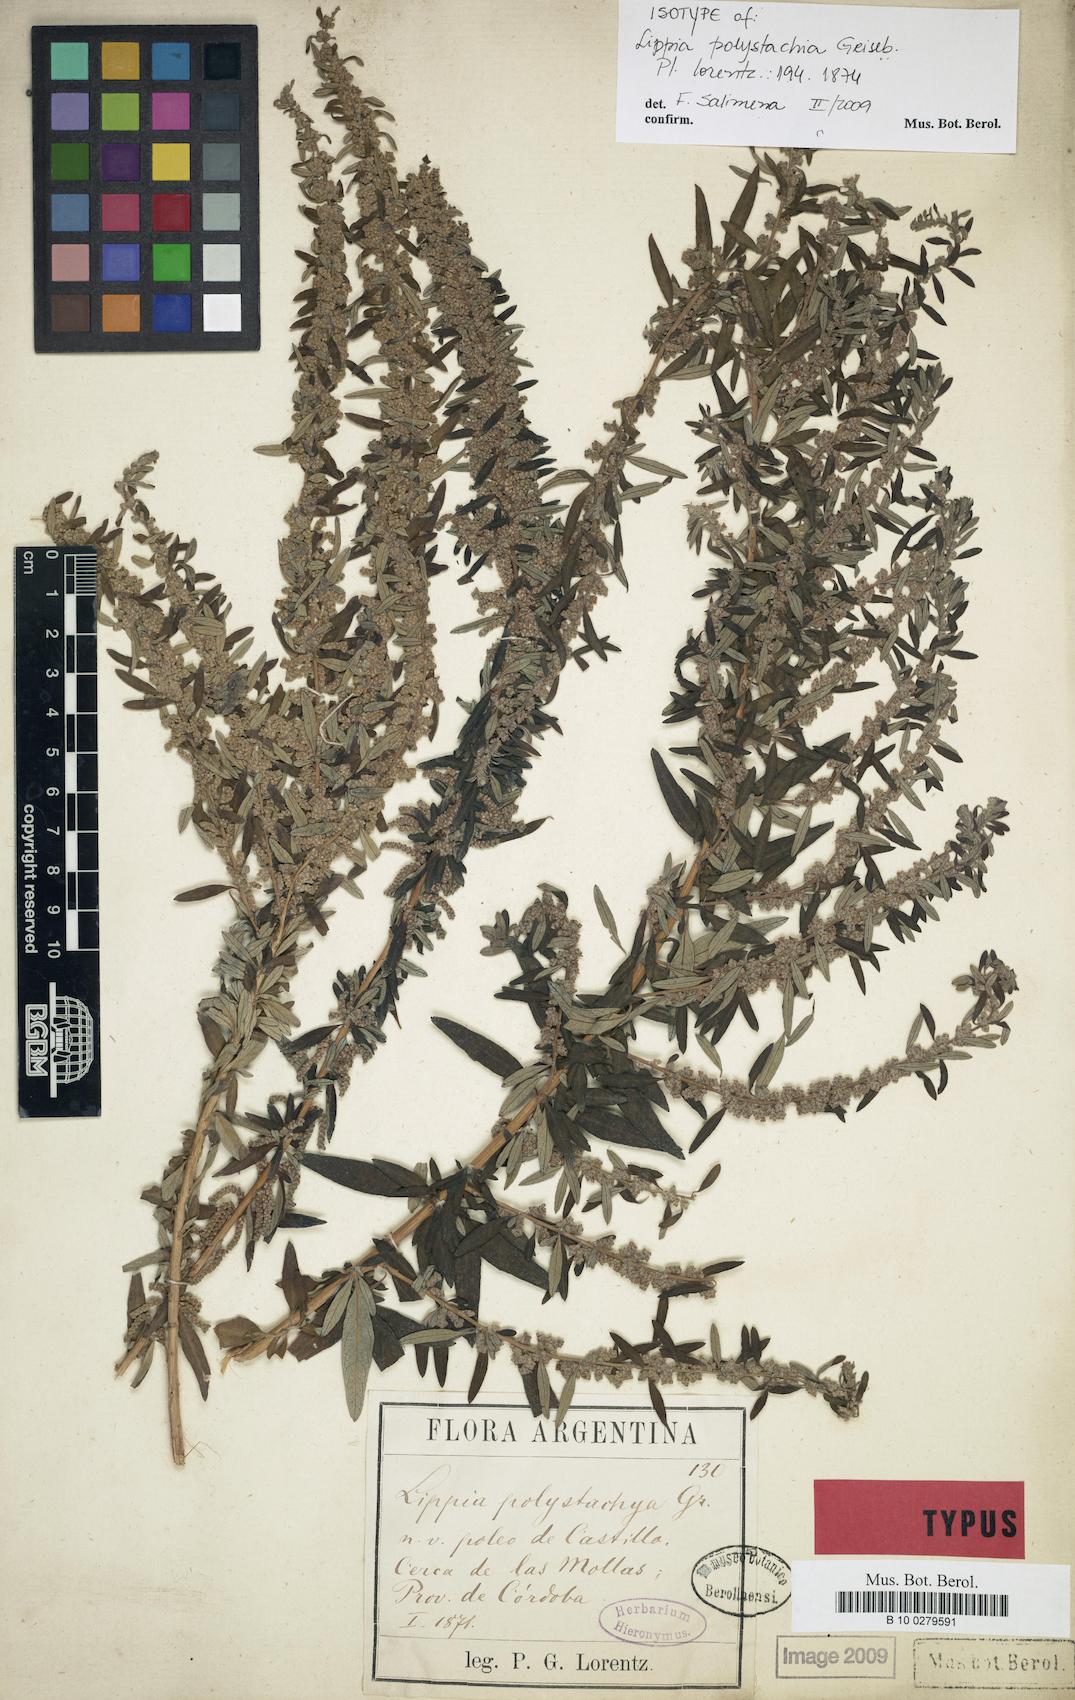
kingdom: Plantae
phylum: Tracheophyta
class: Magnoliopsida
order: Lamiales
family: Verbenaceae
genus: Aloysia
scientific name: Aloysia polystachya
